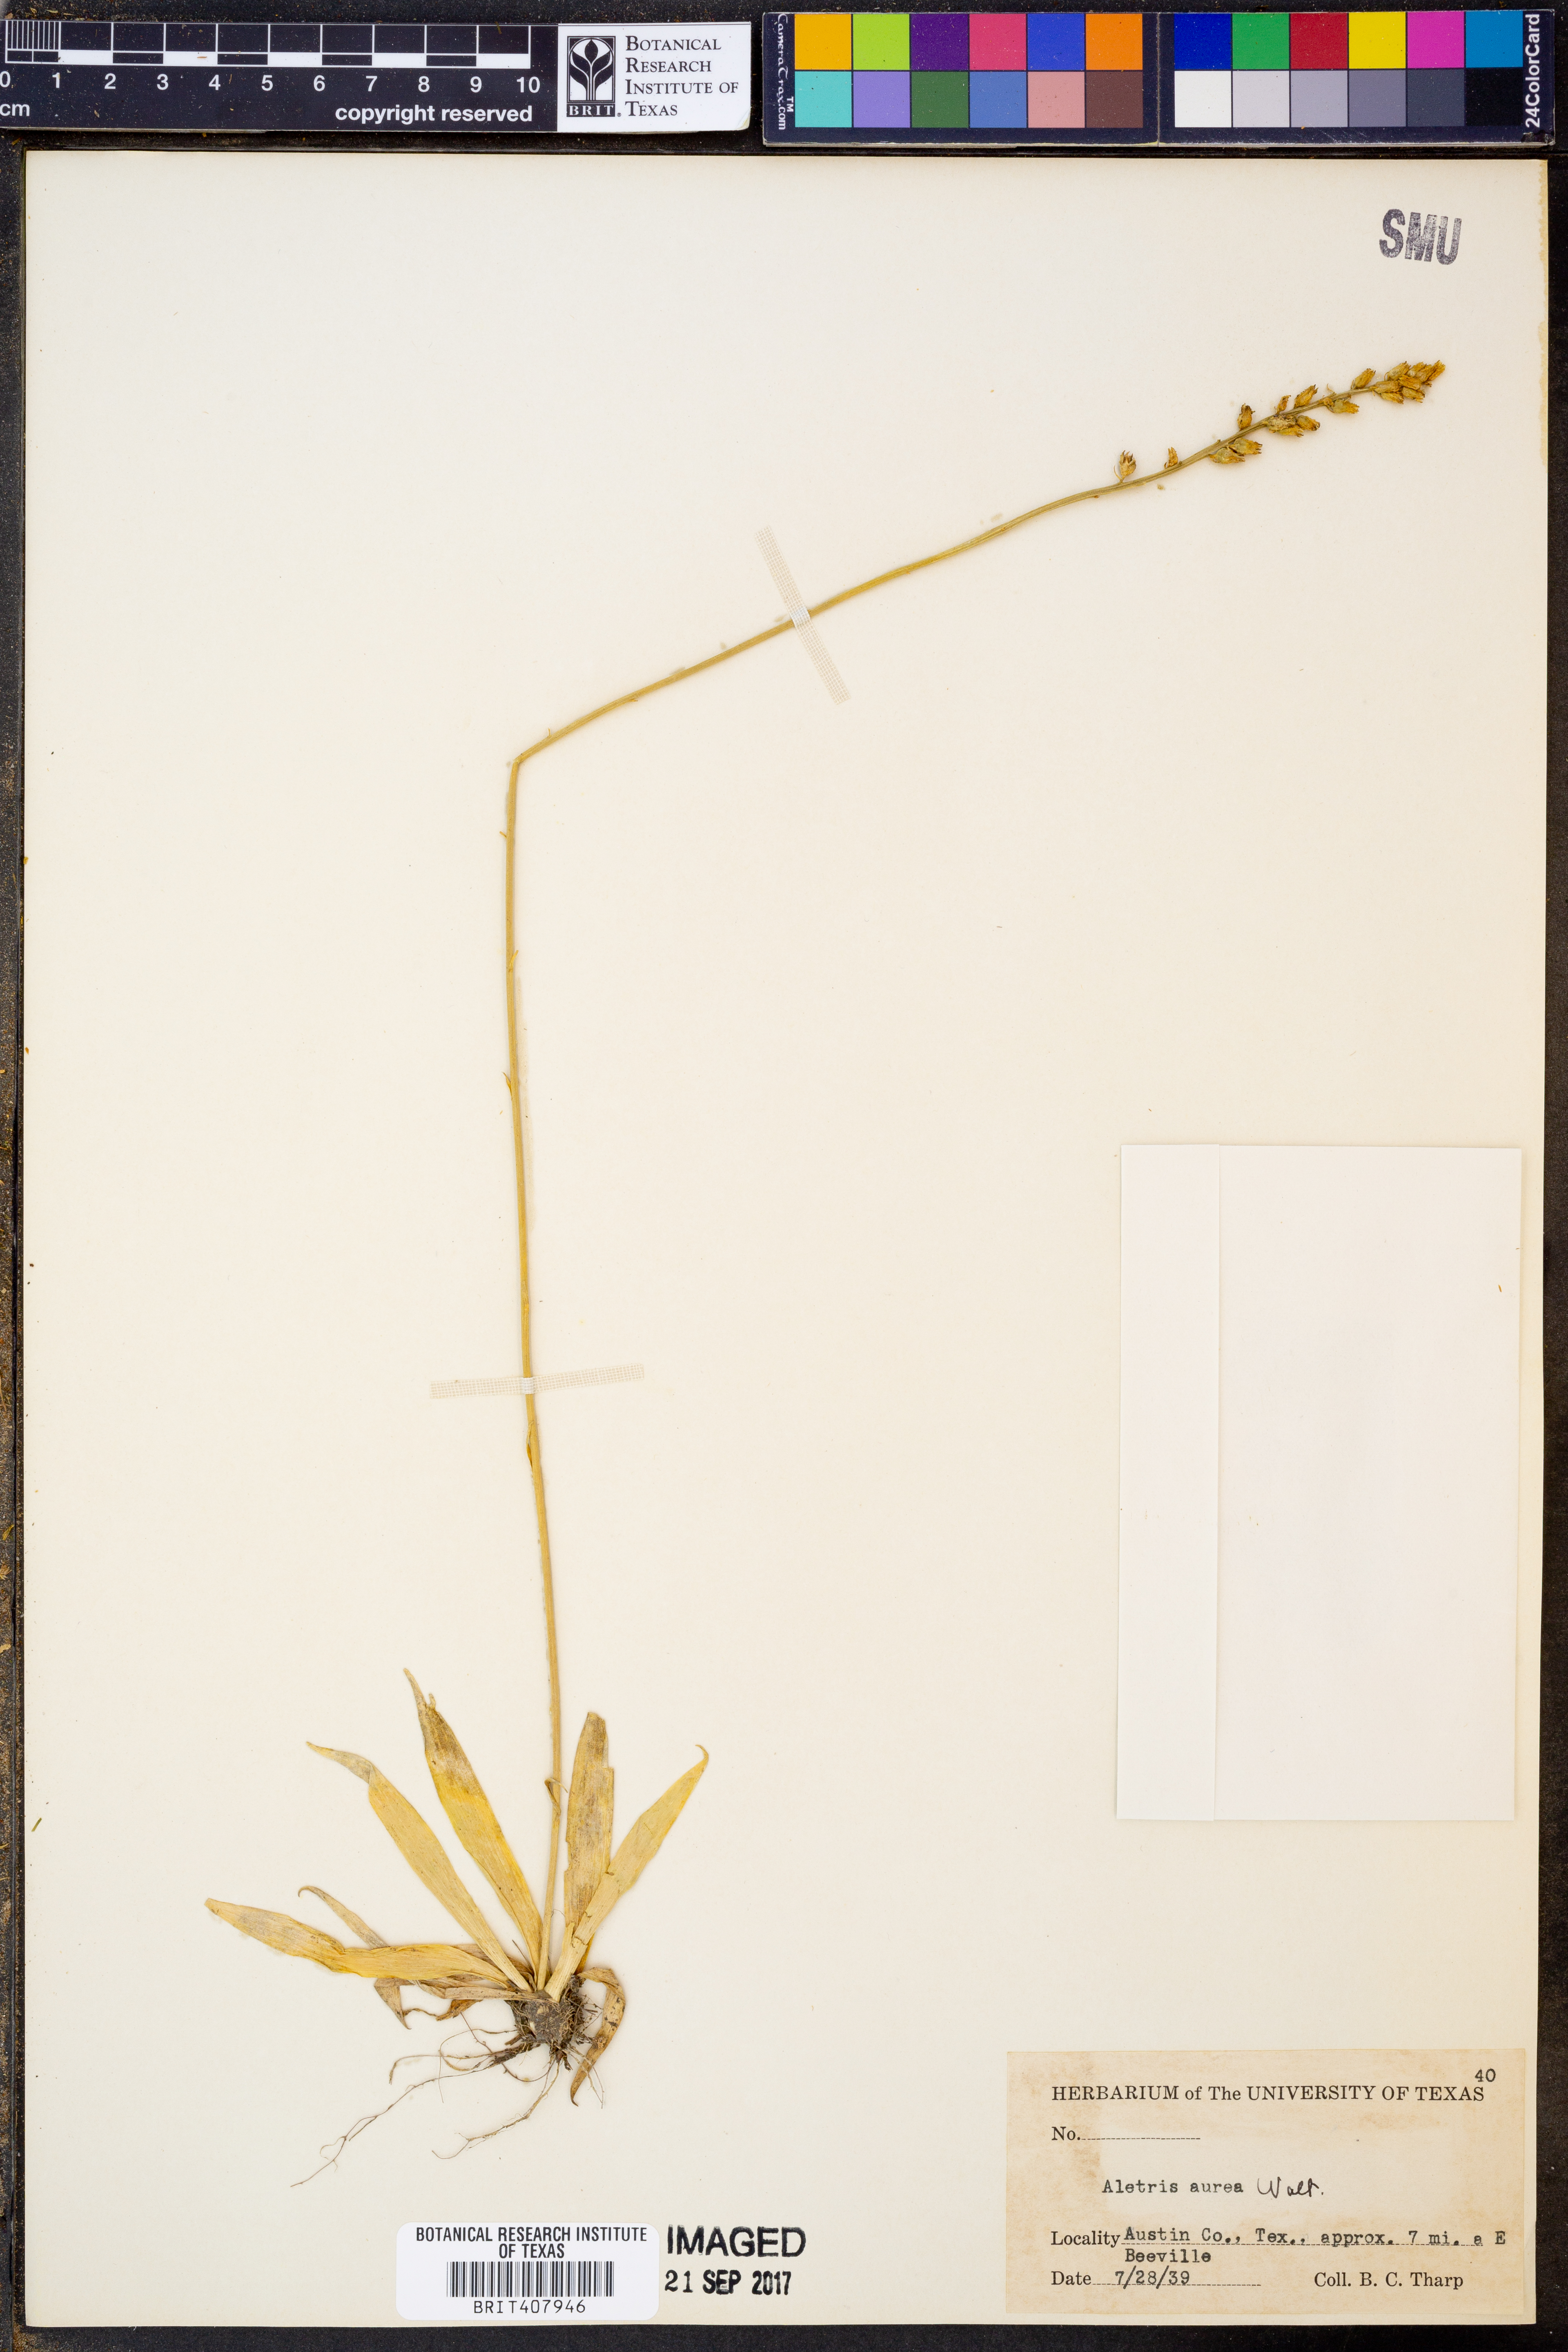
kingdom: Plantae
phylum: Tracheophyta
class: Liliopsida
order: Dioscoreales
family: Nartheciaceae
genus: Aletris
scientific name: Aletris aurea
